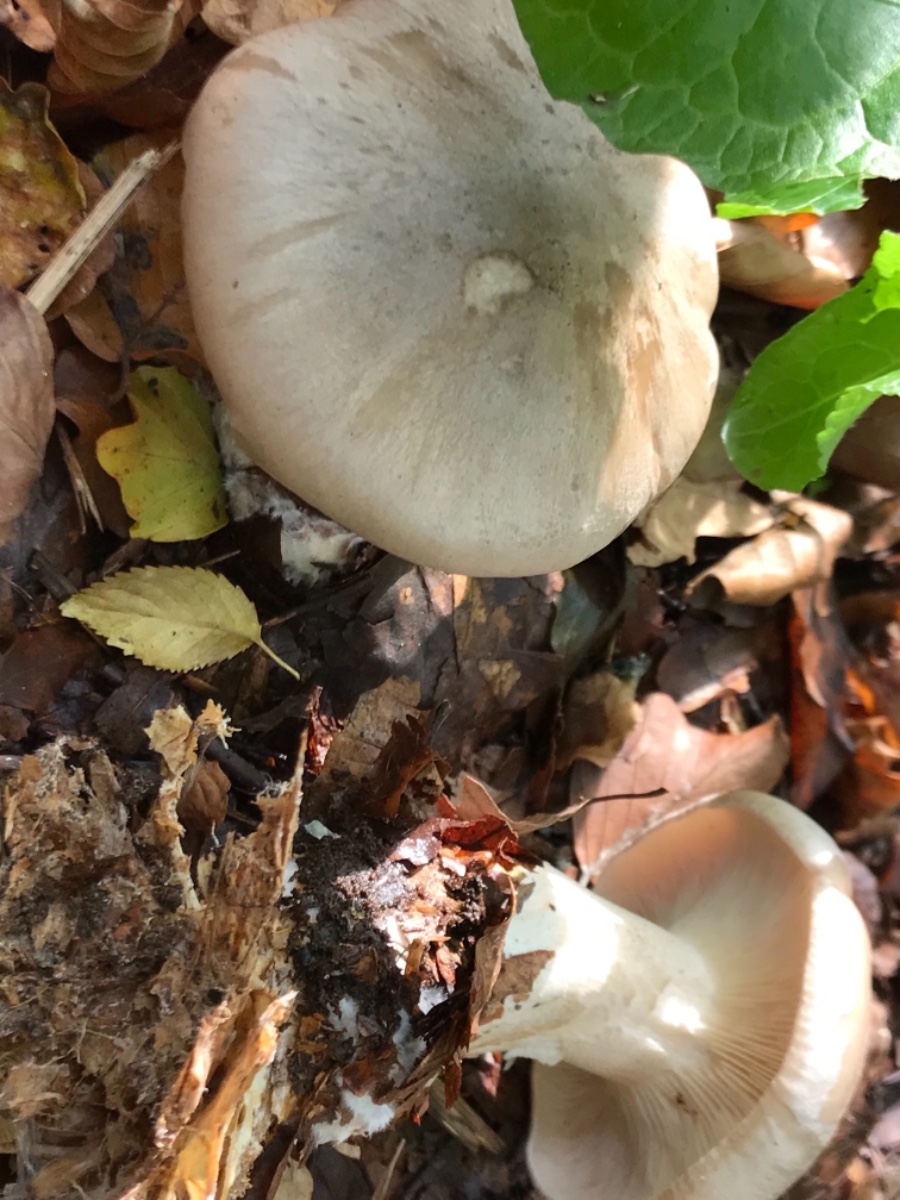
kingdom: Fungi
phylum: Basidiomycota
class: Agaricomycetes
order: Agaricales
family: Tricholomataceae
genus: Clitocybe
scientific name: Clitocybe nebularis
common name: tåge-tragthat
